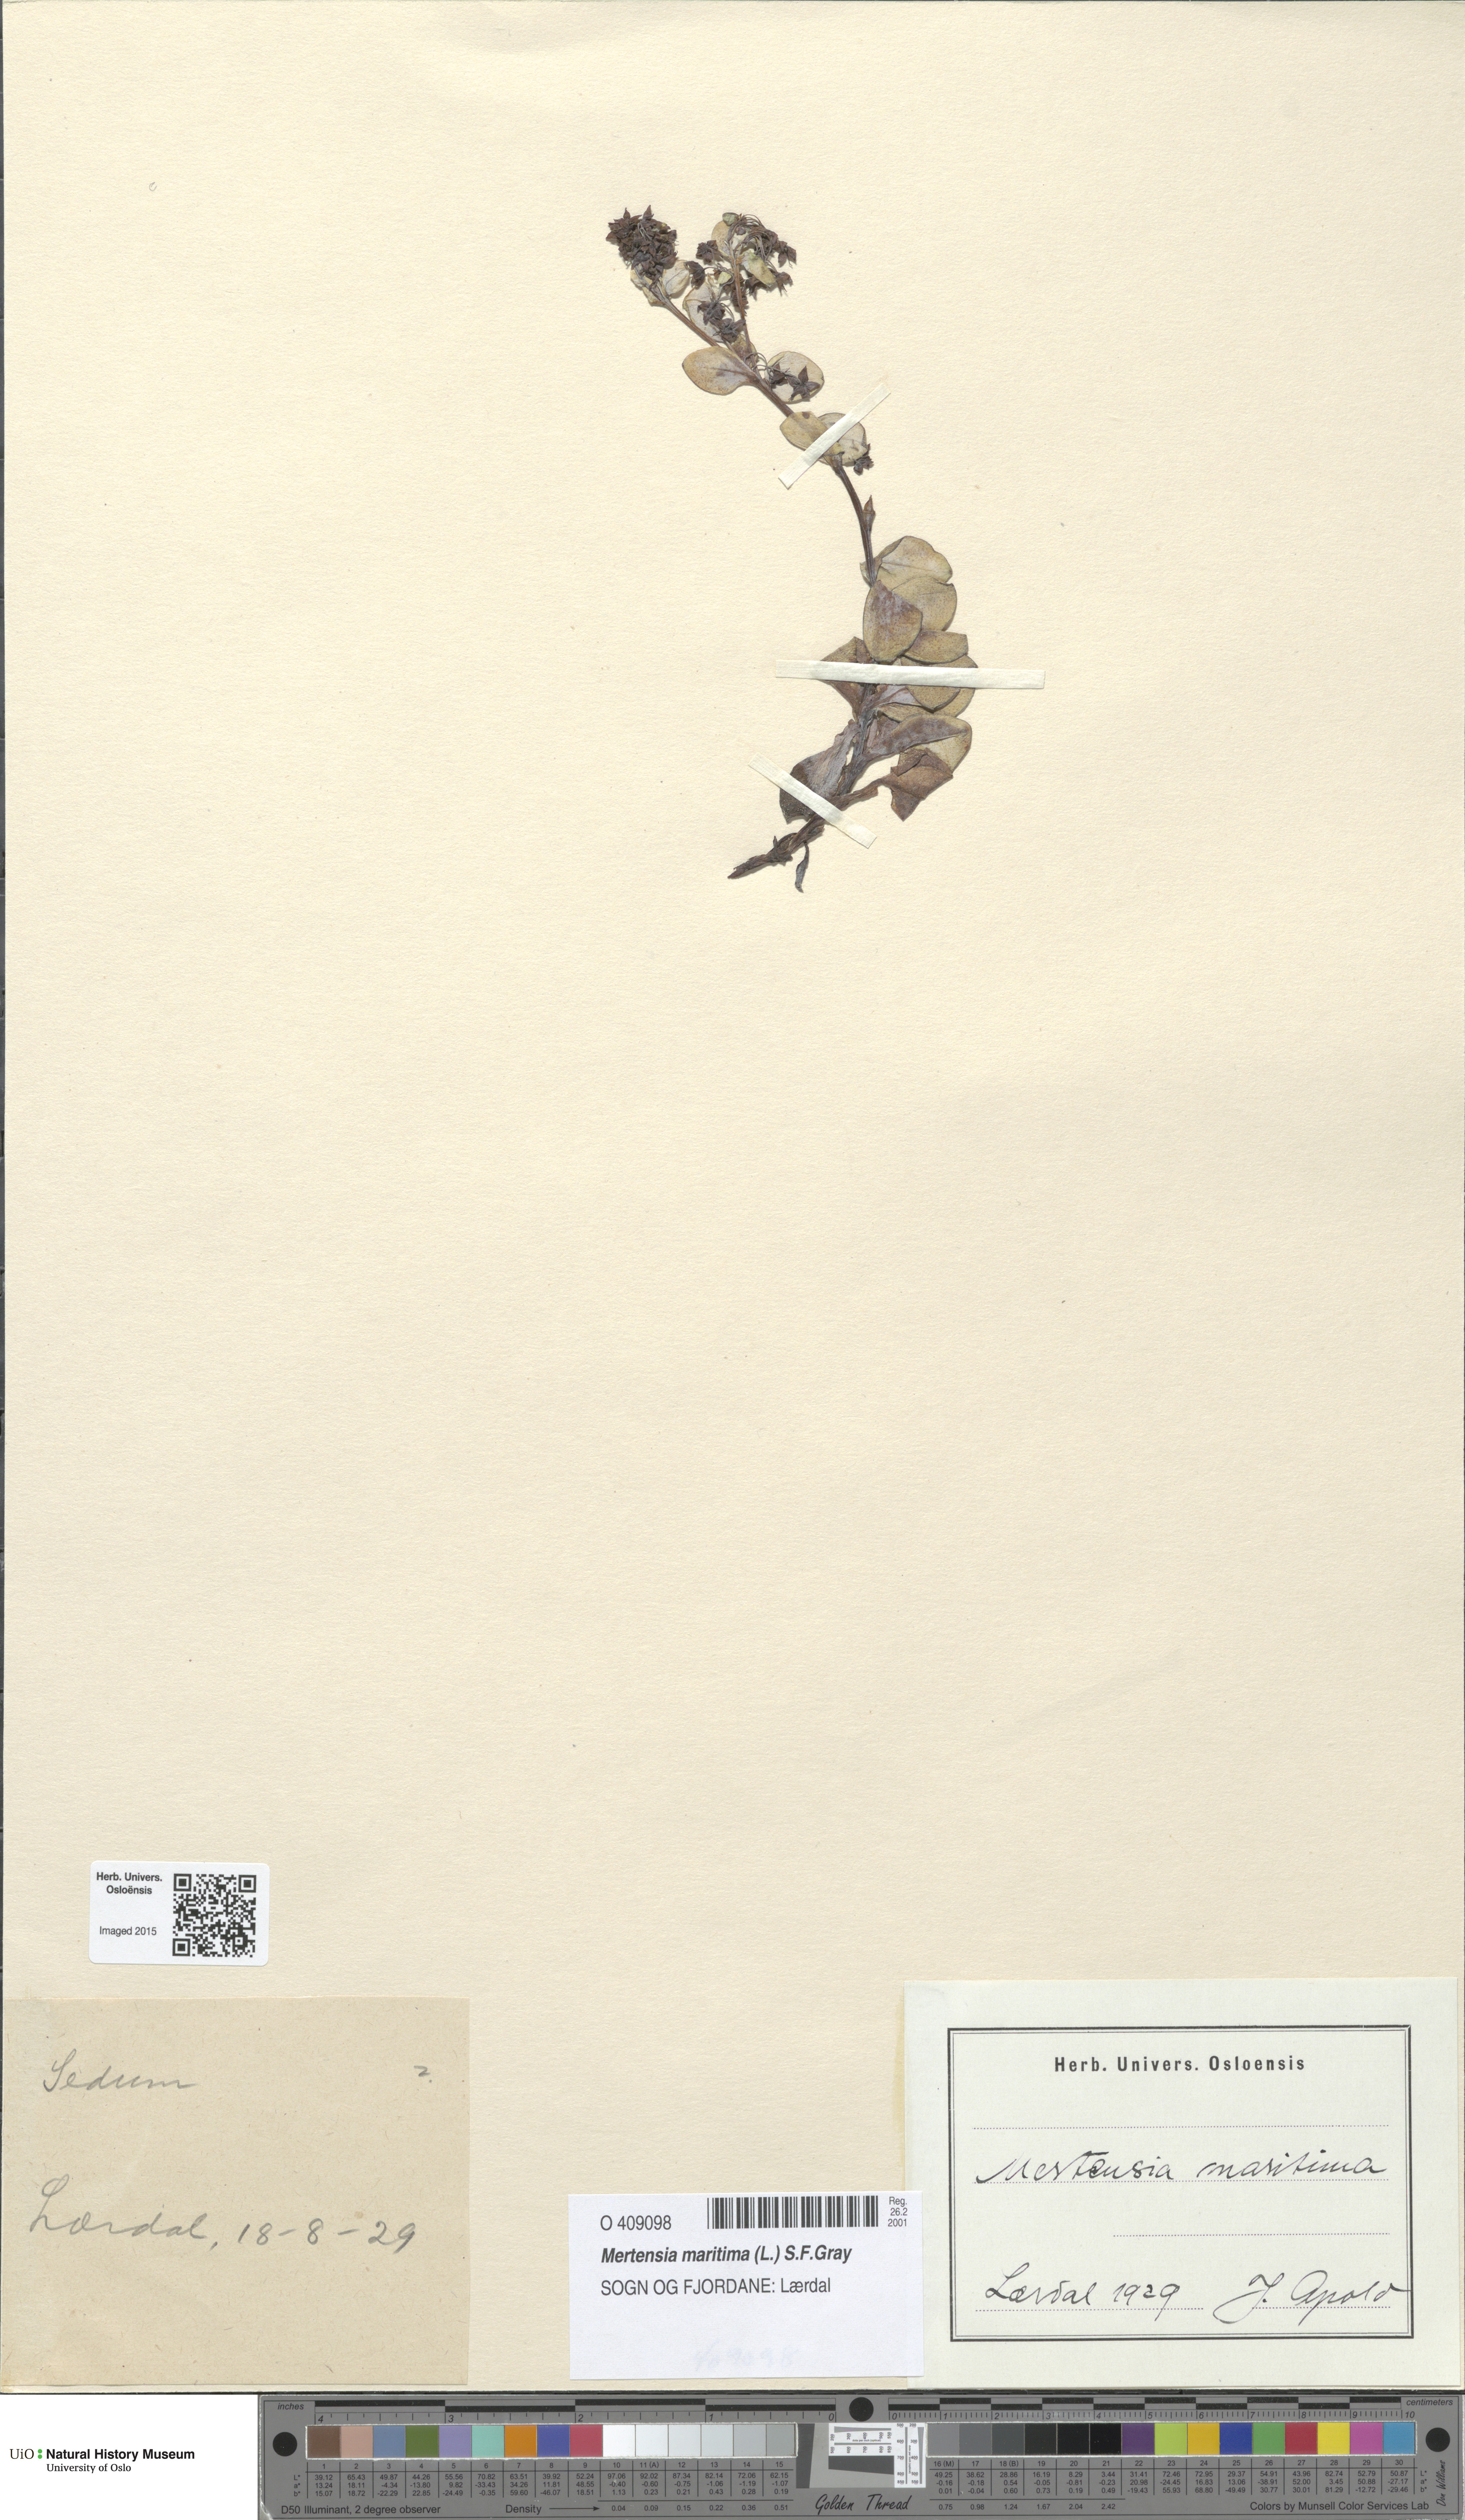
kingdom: Plantae
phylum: Tracheophyta
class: Magnoliopsida
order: Boraginales
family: Boraginaceae
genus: Mertensia
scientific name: Mertensia maritima
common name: Oysterplant
